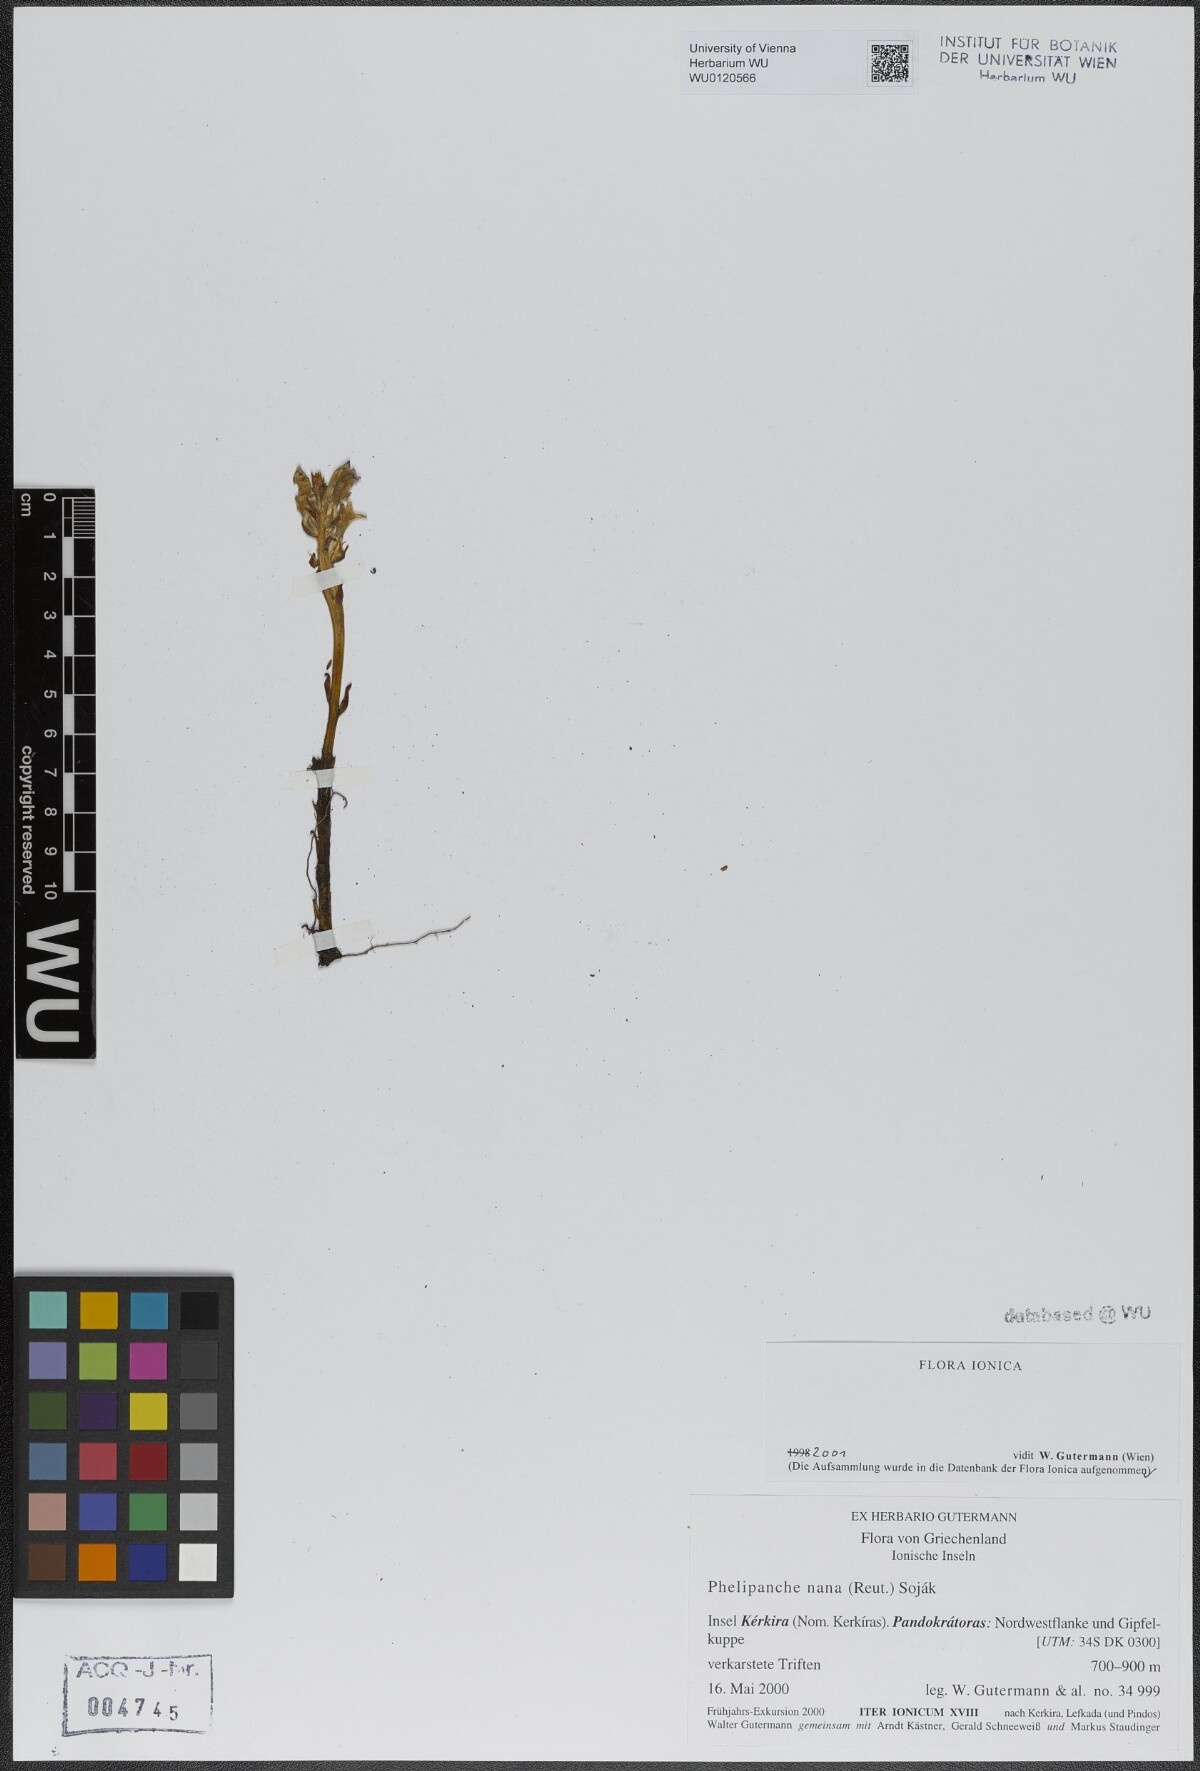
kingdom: Plantae
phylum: Tracheophyta
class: Magnoliopsida
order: Lamiales
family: Orobanchaceae
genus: Phelipanche
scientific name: Phelipanche mutelii
